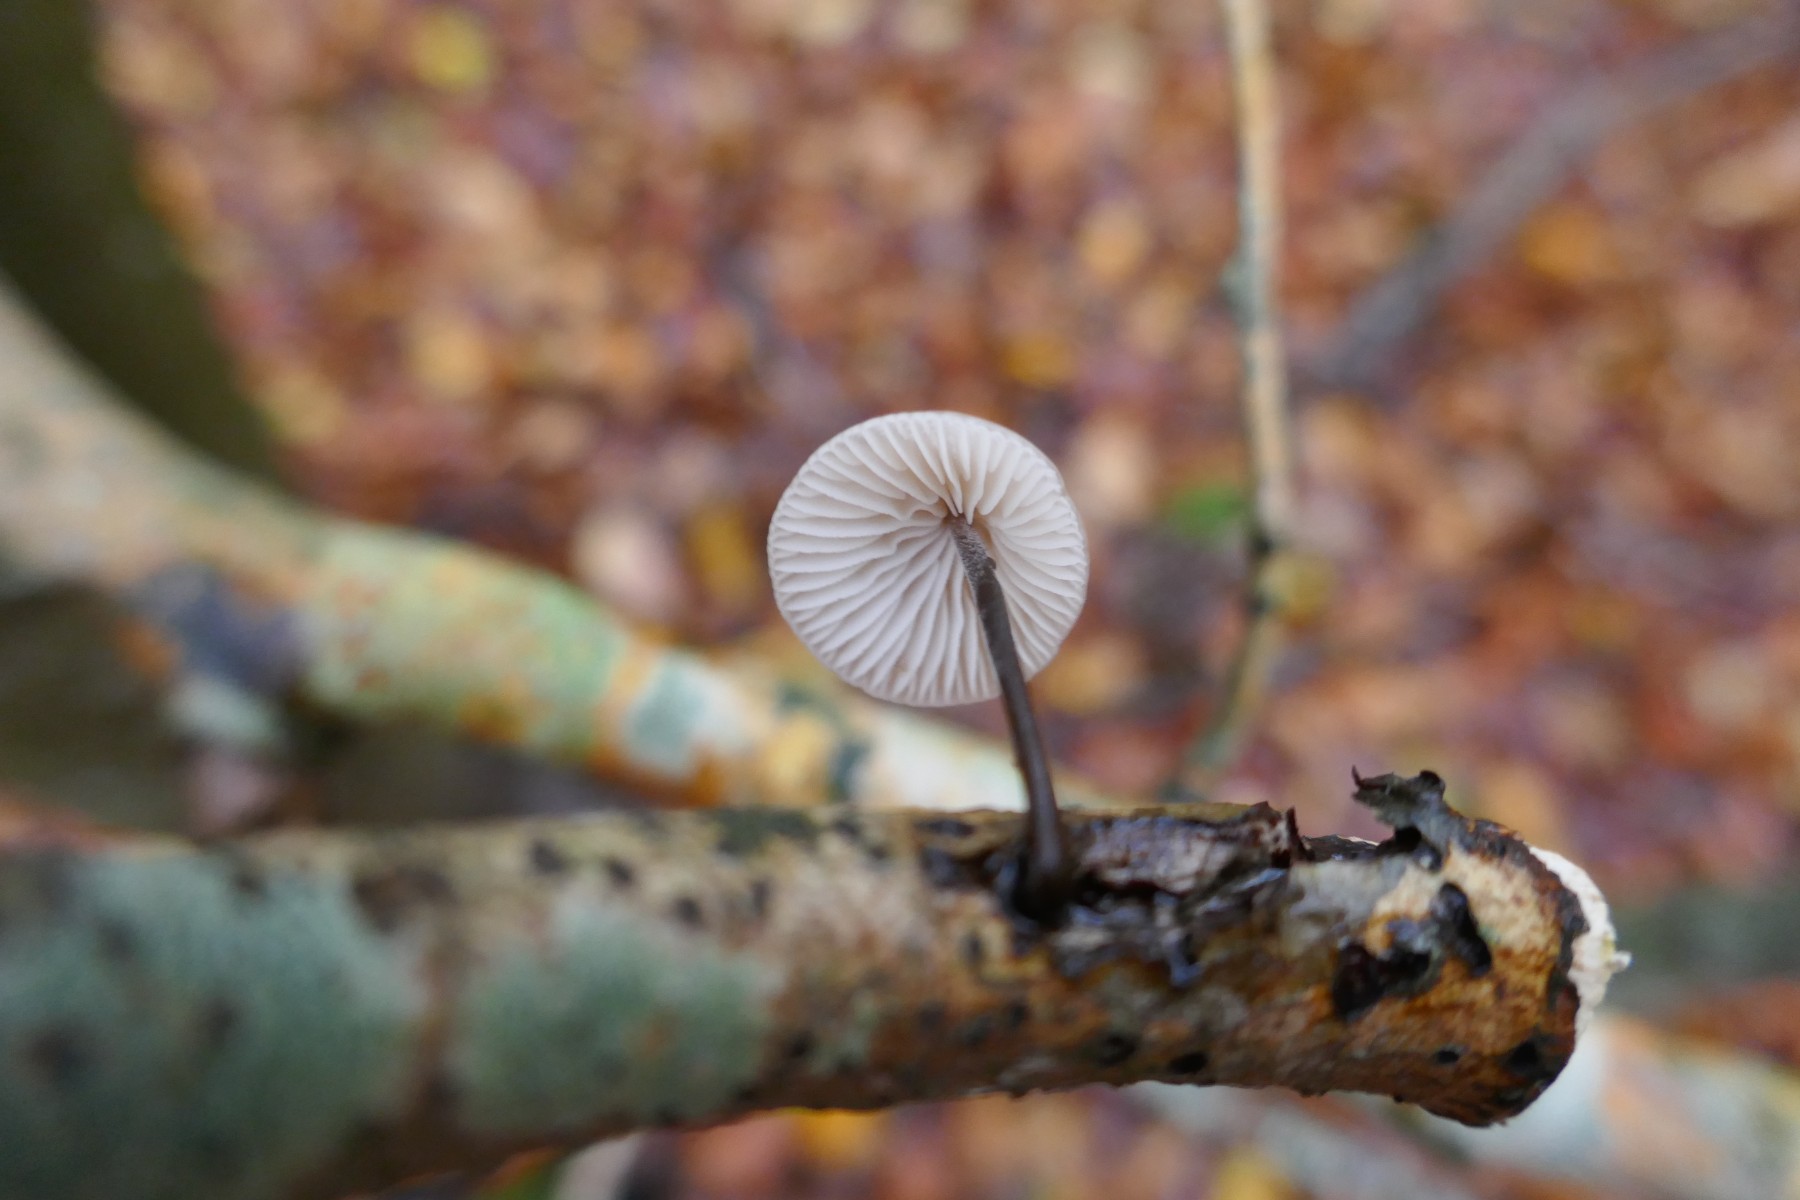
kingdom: Fungi
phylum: Basidiomycota
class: Agaricomycetes
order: Agaricales
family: Omphalotaceae
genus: Mycetinis
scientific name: Mycetinis alliaceus
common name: stor løghat
